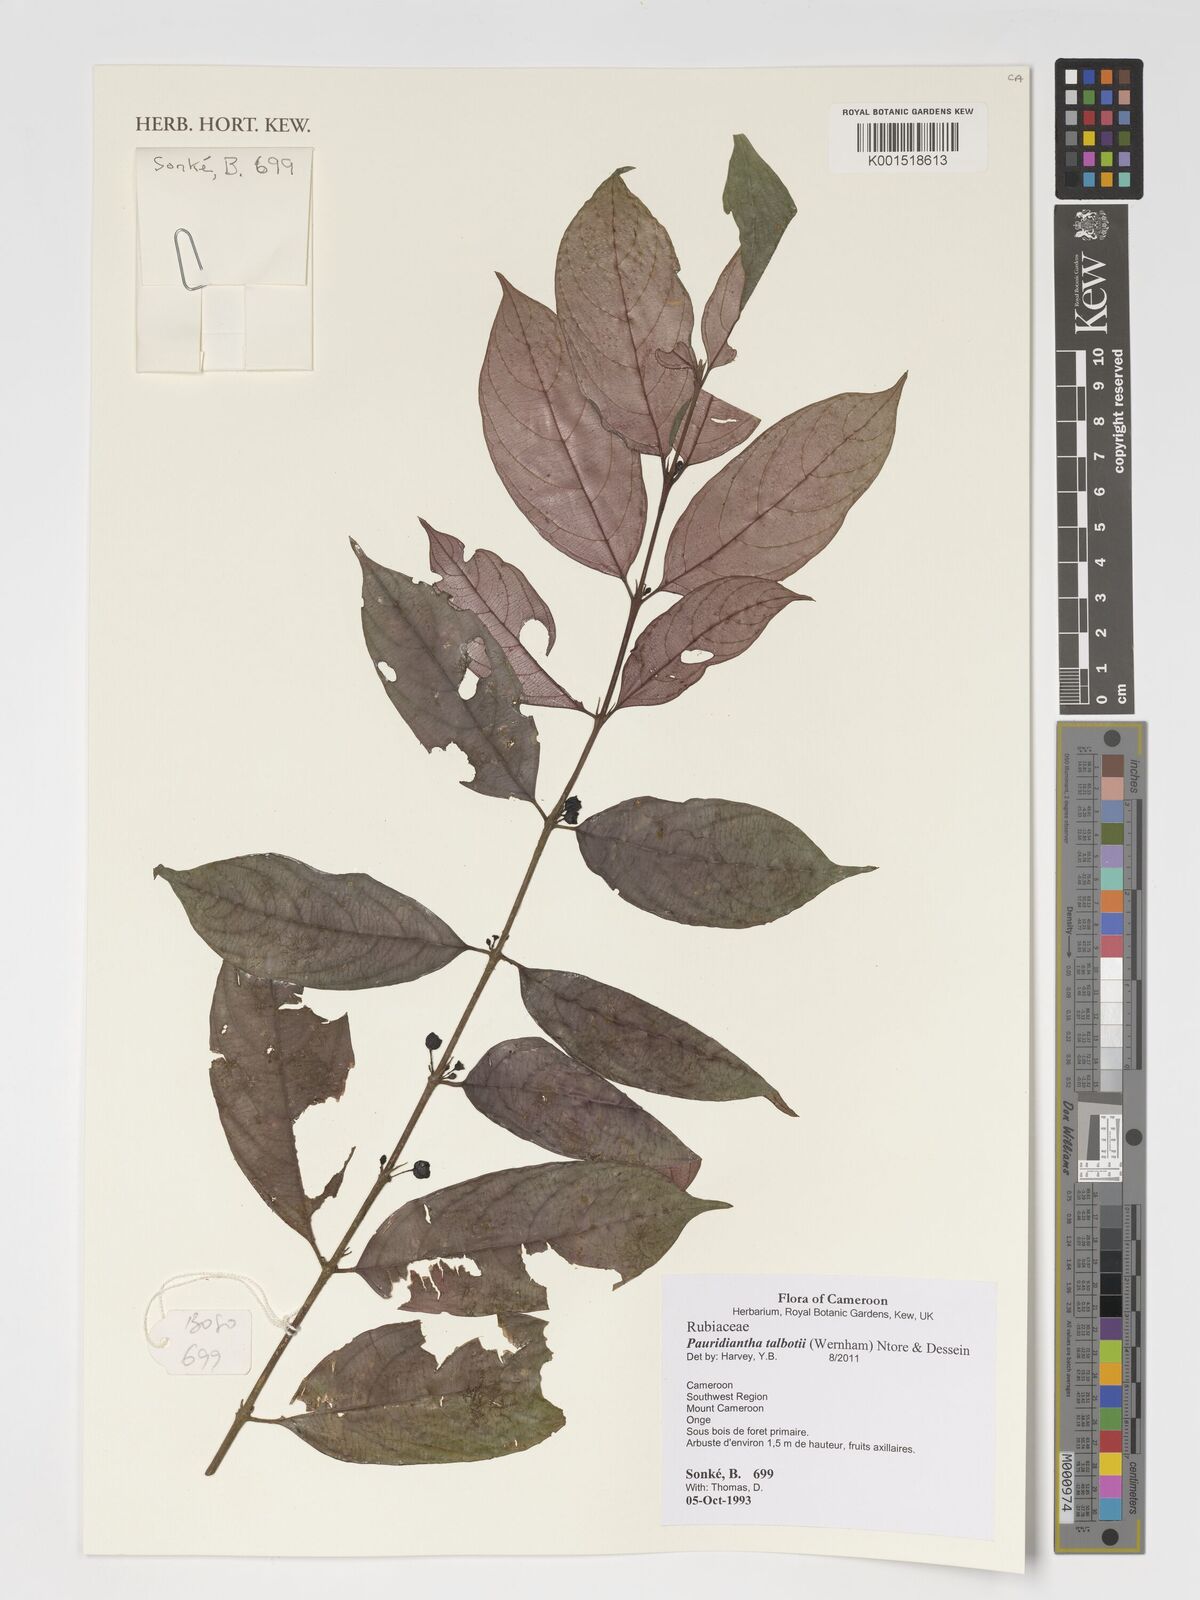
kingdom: Plantae
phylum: Tracheophyta
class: Magnoliopsida
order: Gentianales
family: Rubiaceae
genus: Pauridiantha
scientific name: Pauridiantha talbotii
